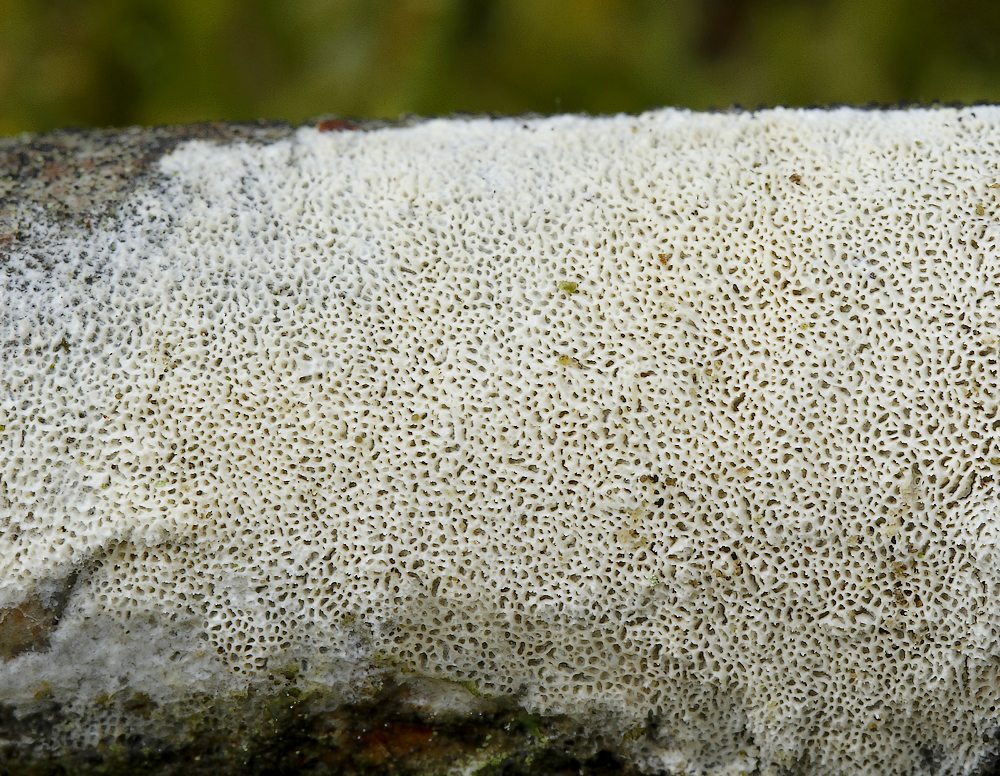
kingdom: Fungi
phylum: Basidiomycota
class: Agaricomycetes
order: Polyporales
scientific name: Polyporales
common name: poresvampordenen
